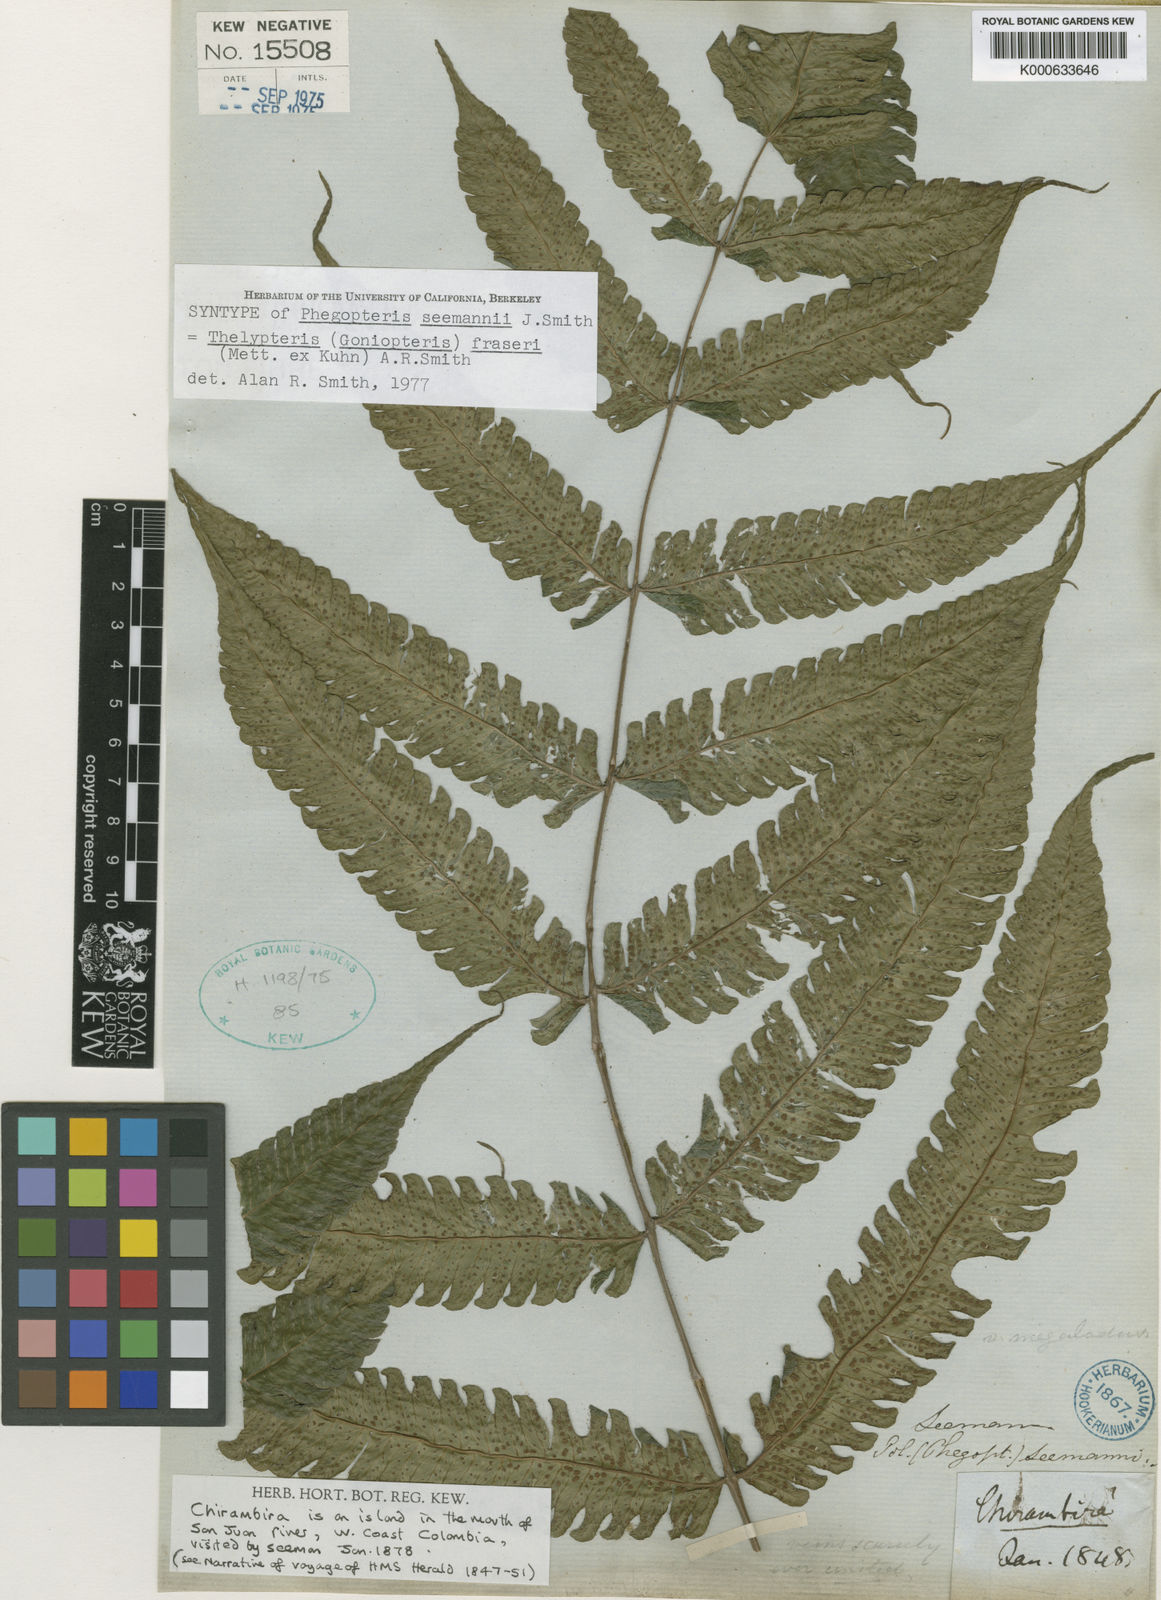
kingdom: Plantae
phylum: Tracheophyta
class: Polypodiopsida
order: Polypodiales
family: Thelypteridaceae
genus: Goniopteris
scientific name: Goniopteris fraseri
